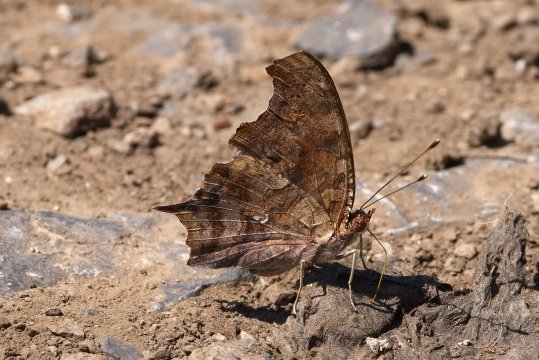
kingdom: Animalia
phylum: Arthropoda
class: Insecta
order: Lepidoptera
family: Nymphalidae
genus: Polygonia
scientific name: Polygonia interrogationis
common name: Question Mark
